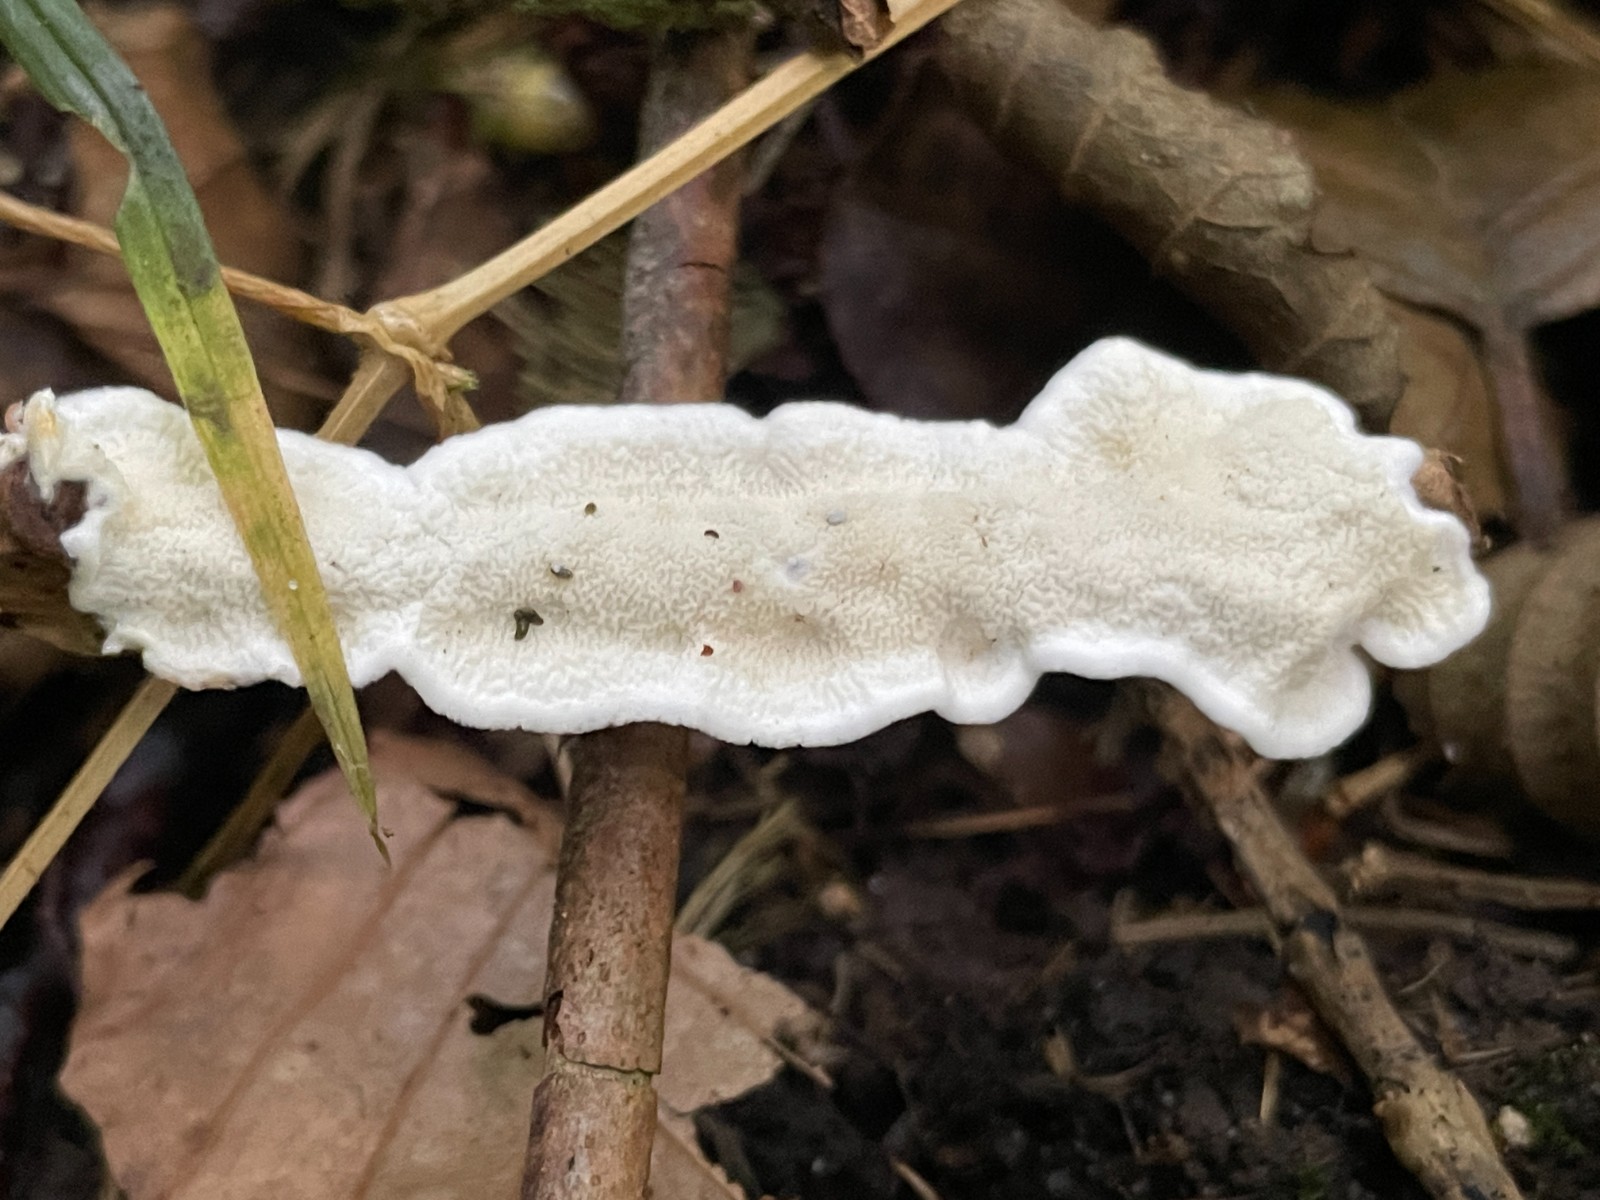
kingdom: Fungi
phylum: Basidiomycota
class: Agaricomycetes
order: Polyporales
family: Irpicaceae
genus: Byssomerulius
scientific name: Byssomerulius corium
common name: læder-åresvamp
